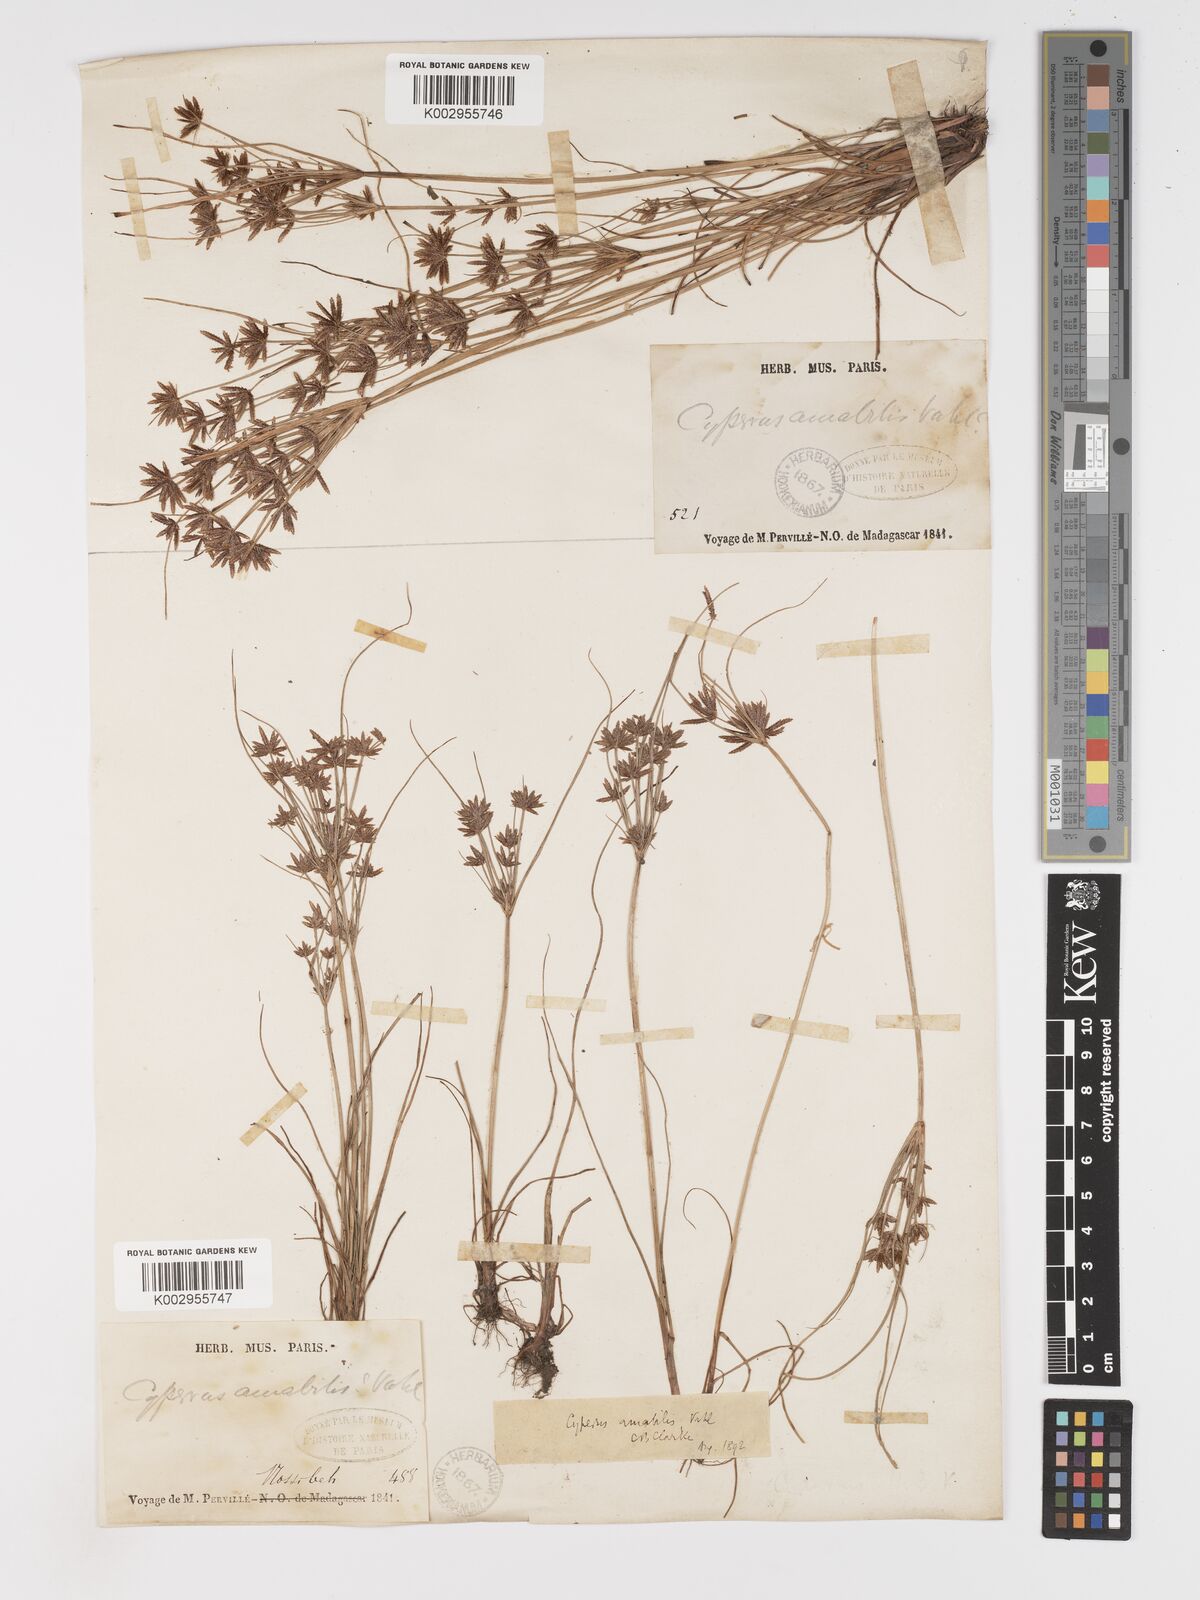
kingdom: Plantae
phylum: Tracheophyta
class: Liliopsida
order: Poales
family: Cyperaceae
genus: Cyperus
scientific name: Cyperus amabilis
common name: Foothill flat sedge
